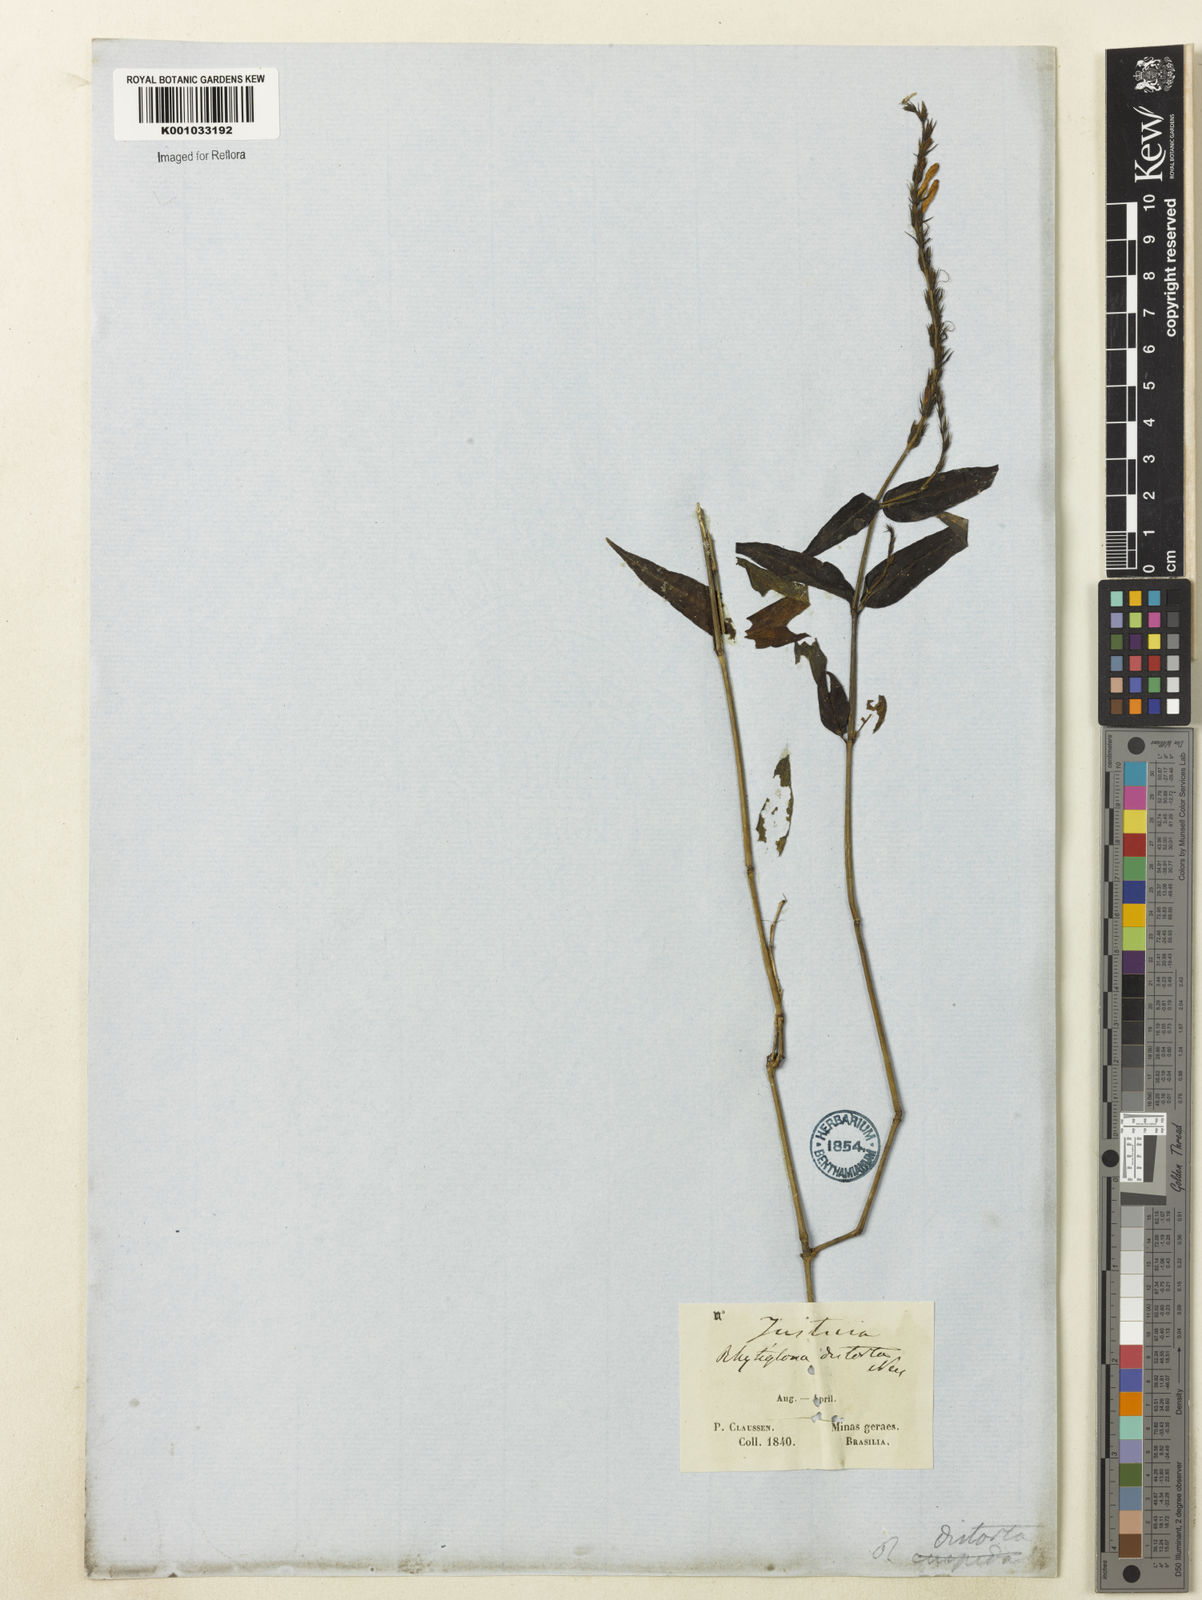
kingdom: Plantae
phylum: Tracheophyta
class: Magnoliopsida
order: Lamiales
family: Acanthaceae
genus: Dianthera
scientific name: Dianthera dasyclados
